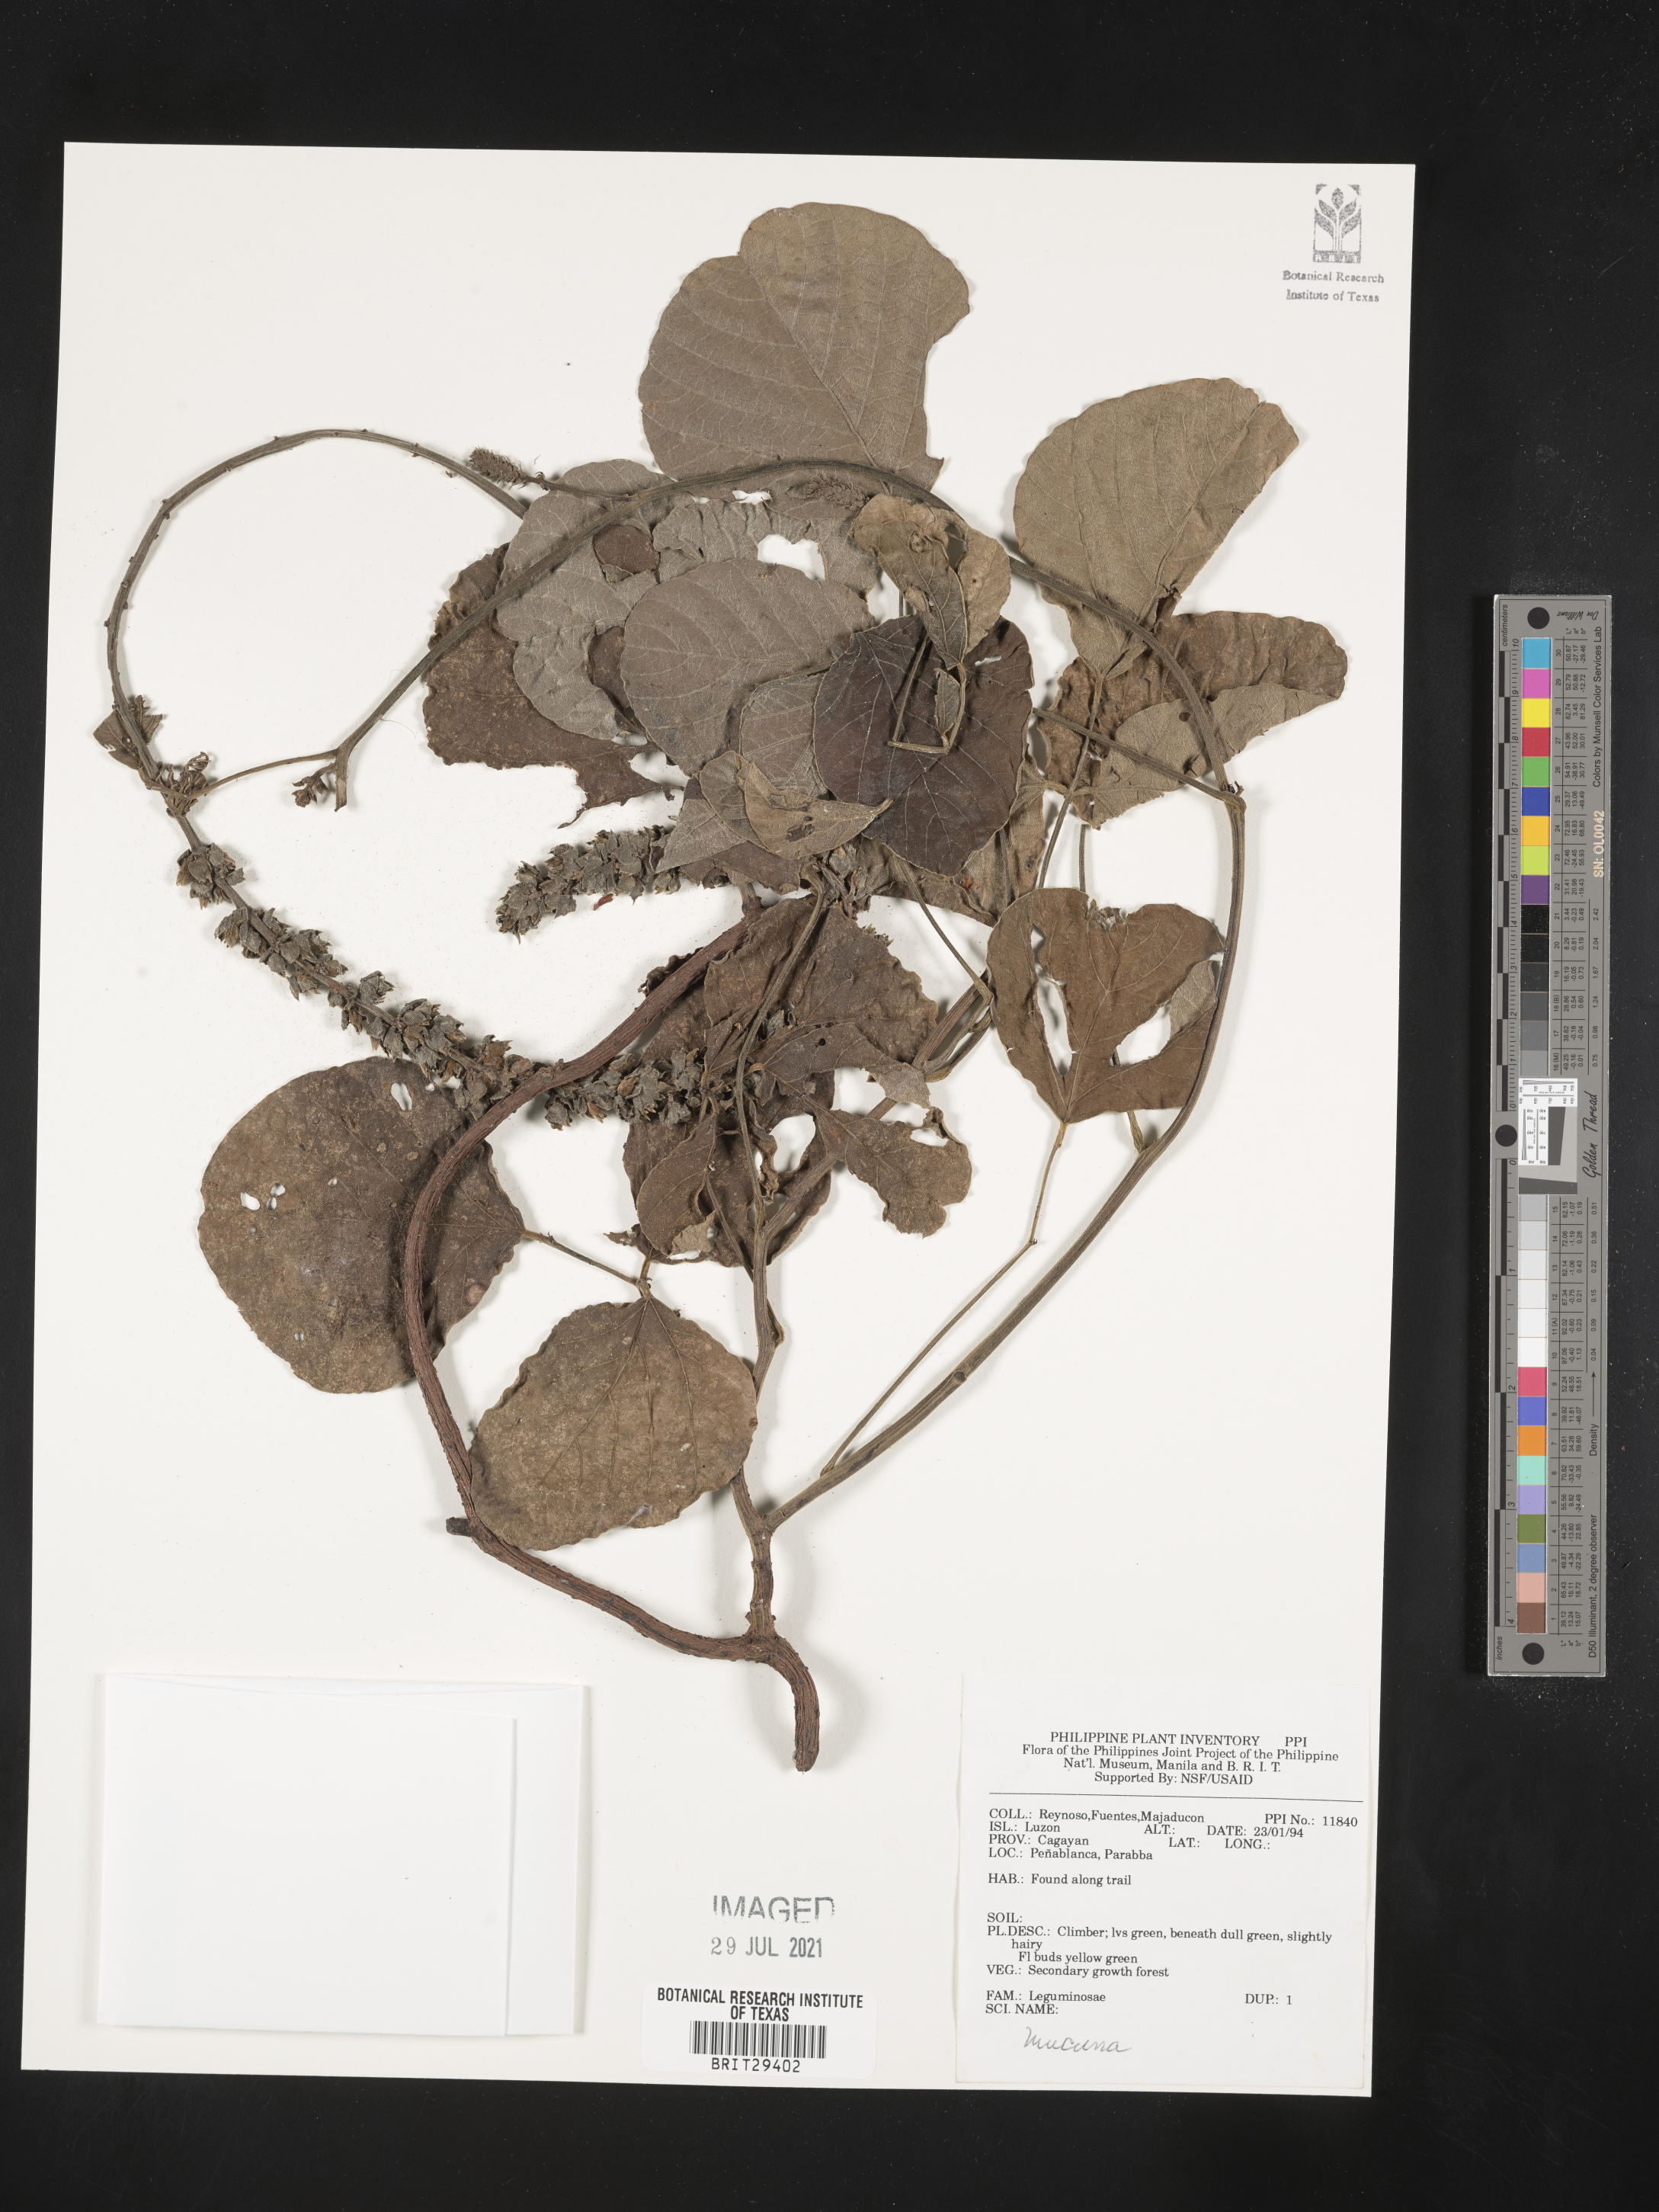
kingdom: Plantae
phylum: Tracheophyta
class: Magnoliopsida
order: Fabales
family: Fabaceae
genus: Mucuna
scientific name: Mucuna
